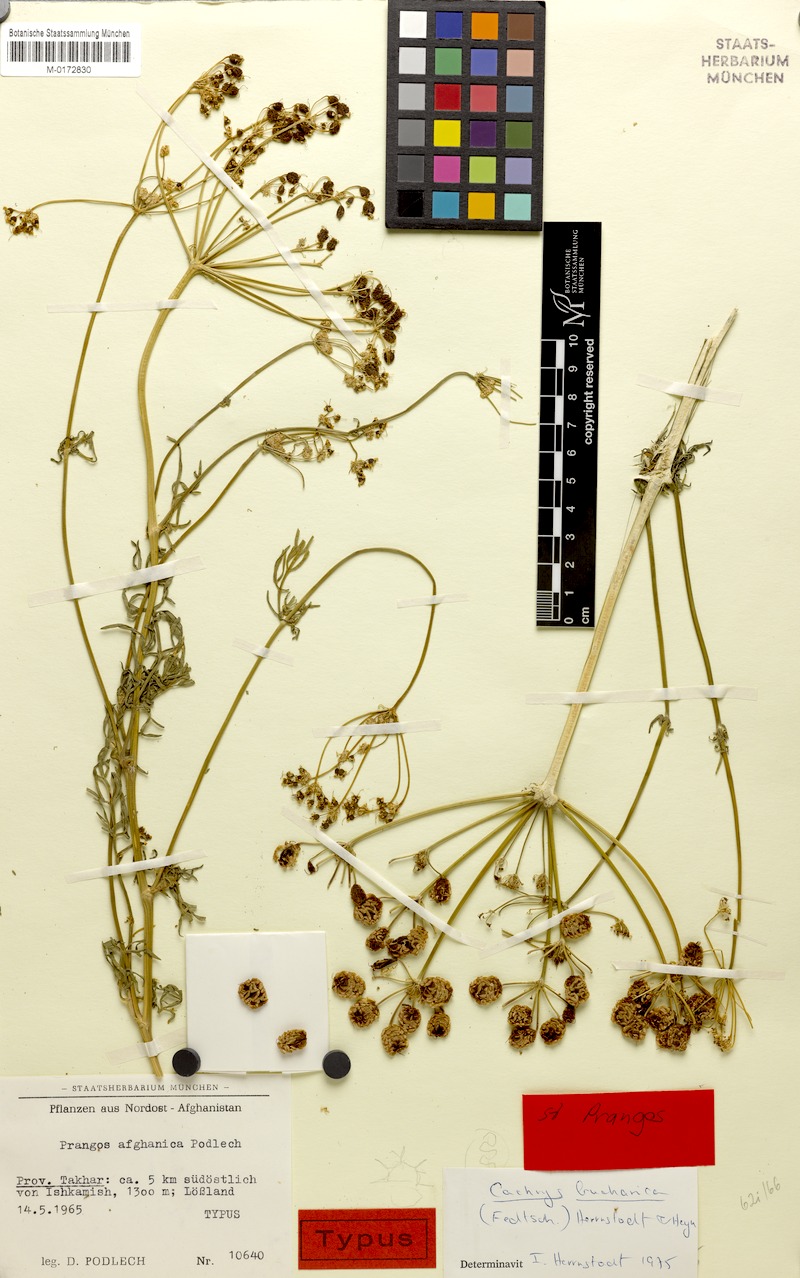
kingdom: Plantae
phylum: Tracheophyta
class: Magnoliopsida
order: Apiales
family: Apiaceae
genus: Prangos
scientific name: Prangos bucharica
